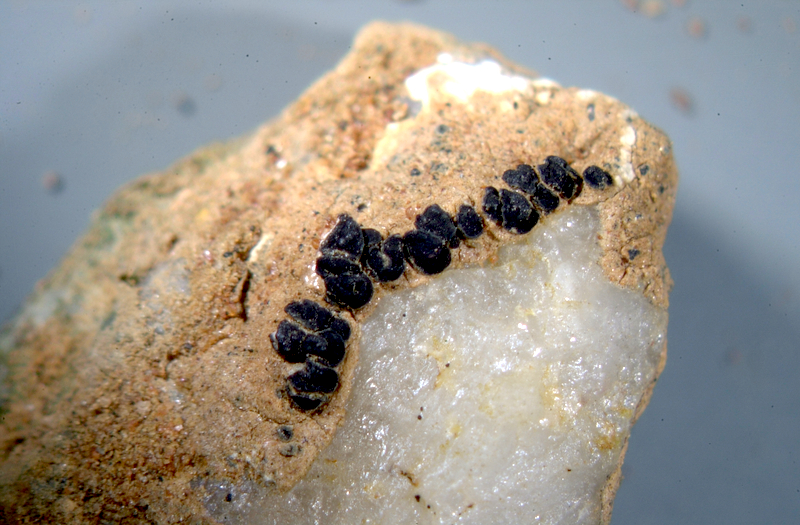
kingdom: Fungi
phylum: Ascomycota
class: Lichinomycetes
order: Lichinales
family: Lichinaceae
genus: Peccania
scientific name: Peccania
